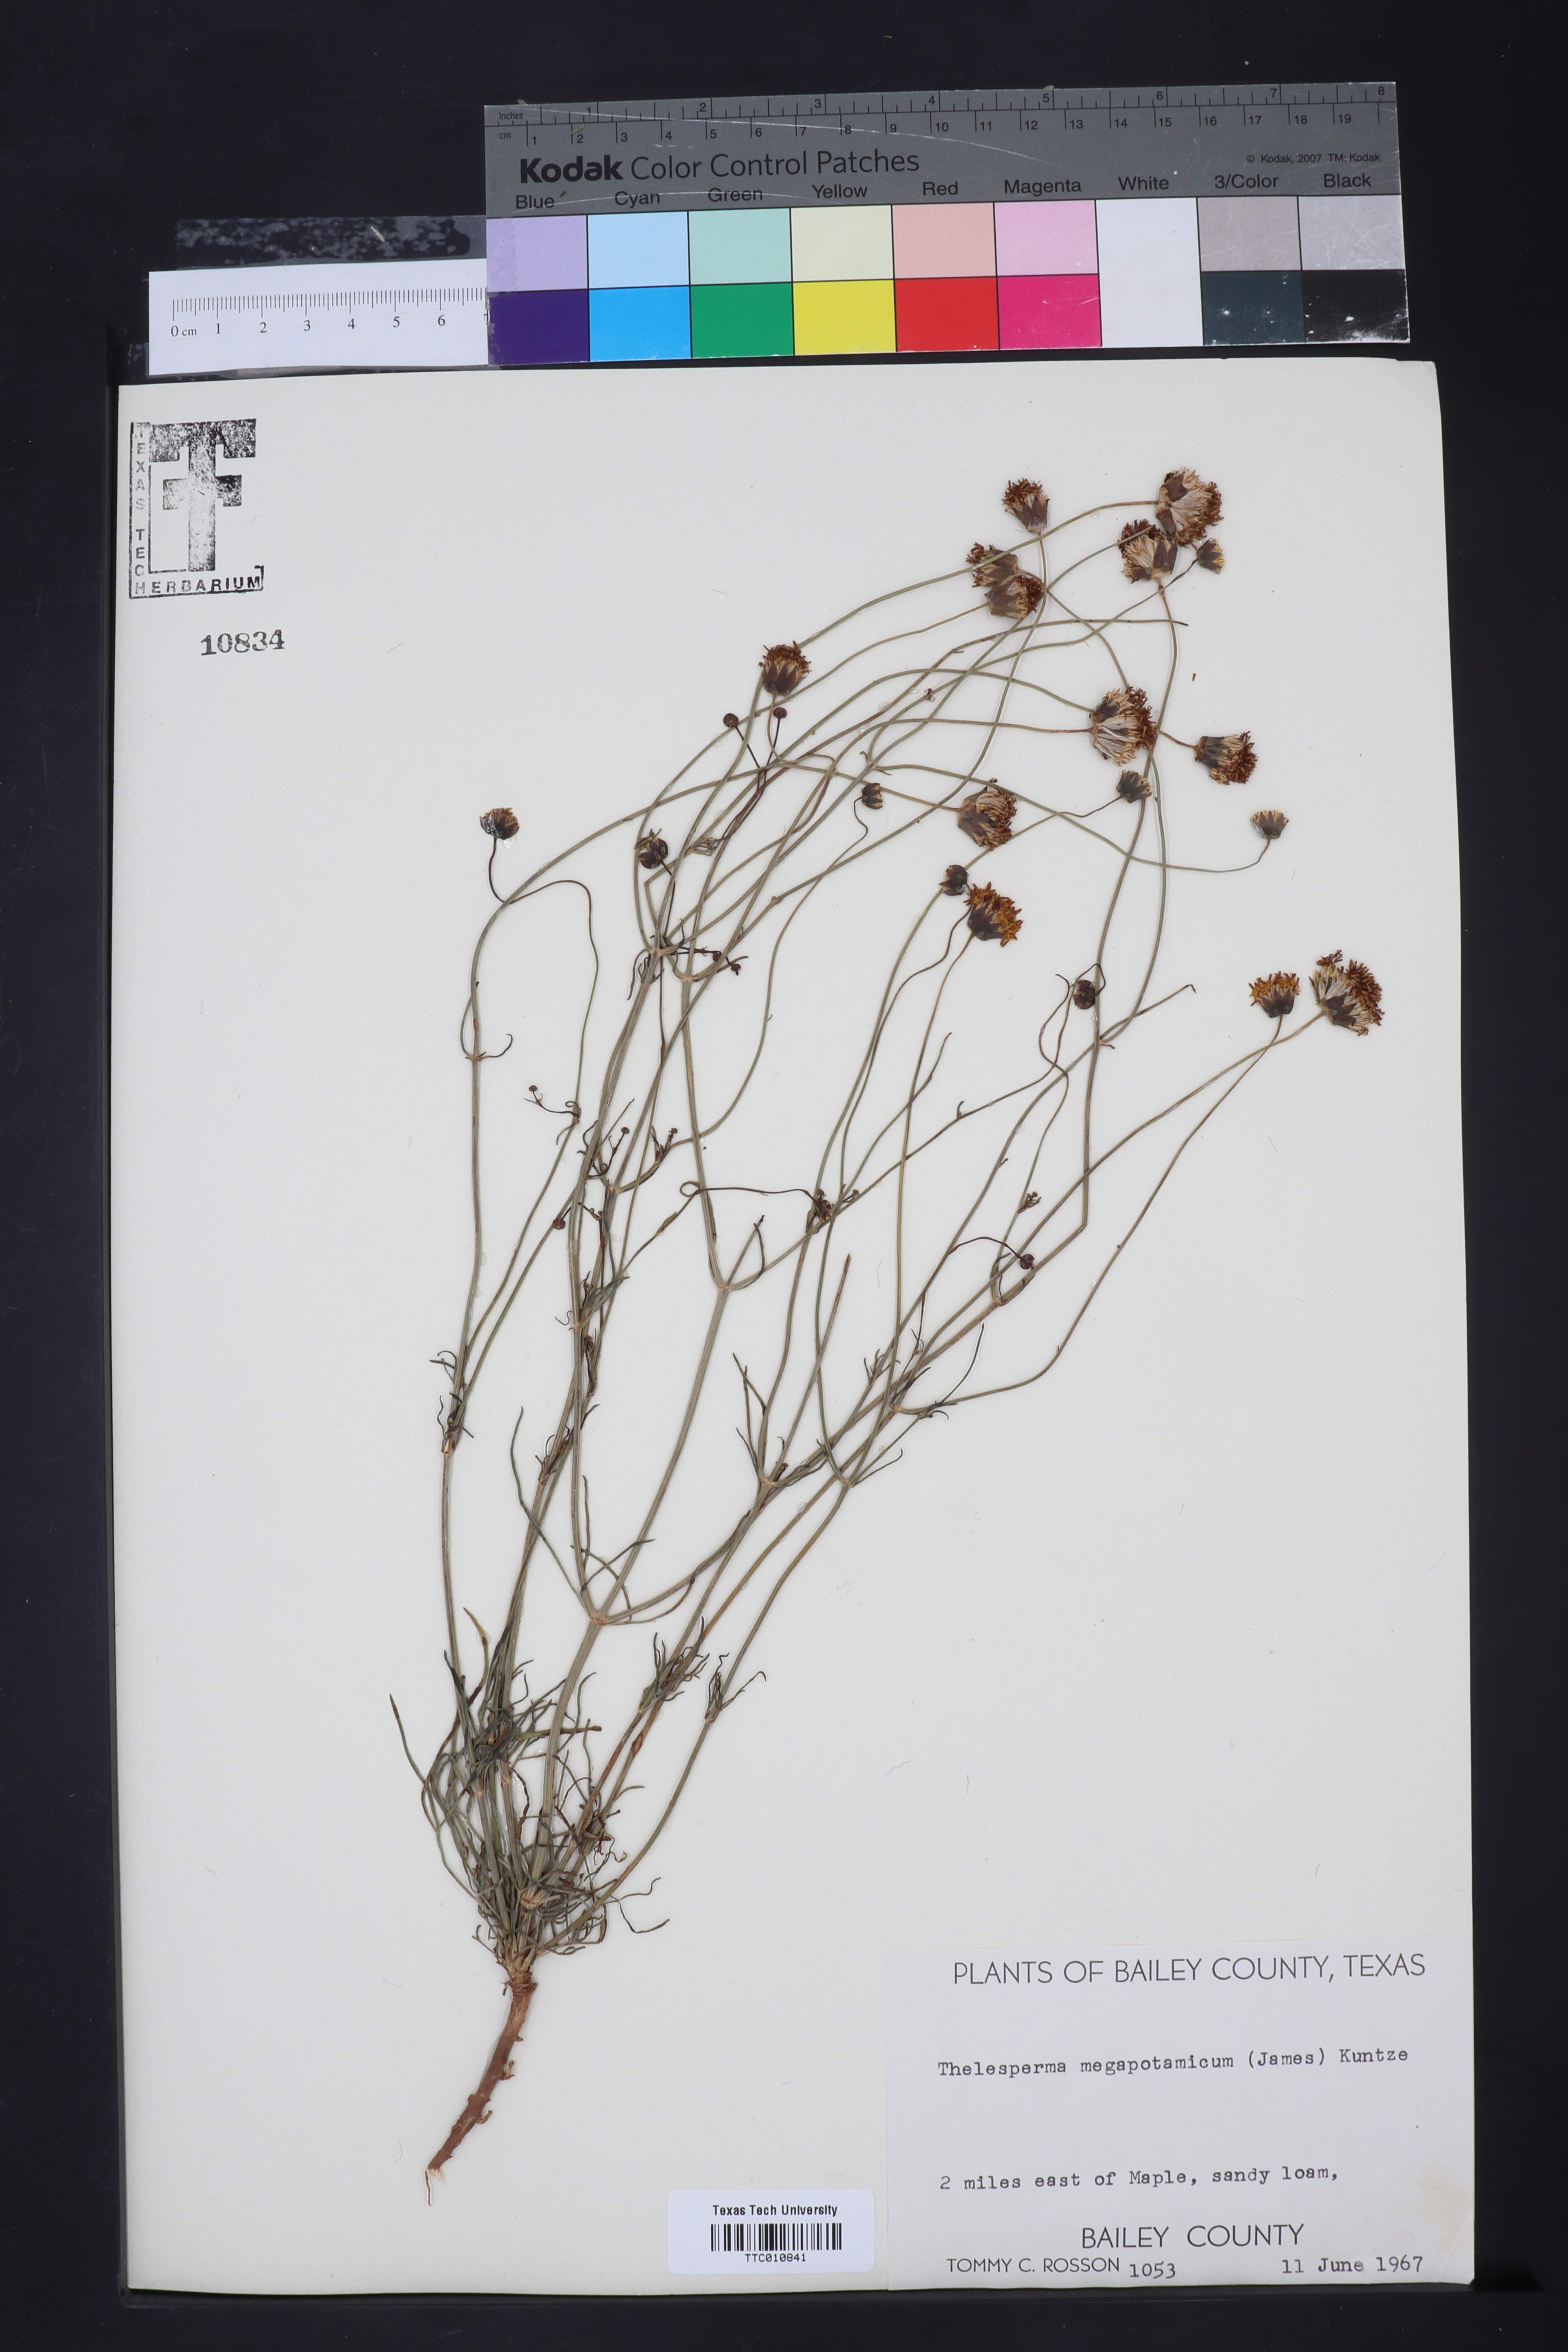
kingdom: Plantae
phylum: Tracheophyta
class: Magnoliopsida
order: Asterales
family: Asteraceae
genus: Thelesperma
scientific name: Thelesperma megapotamicum
